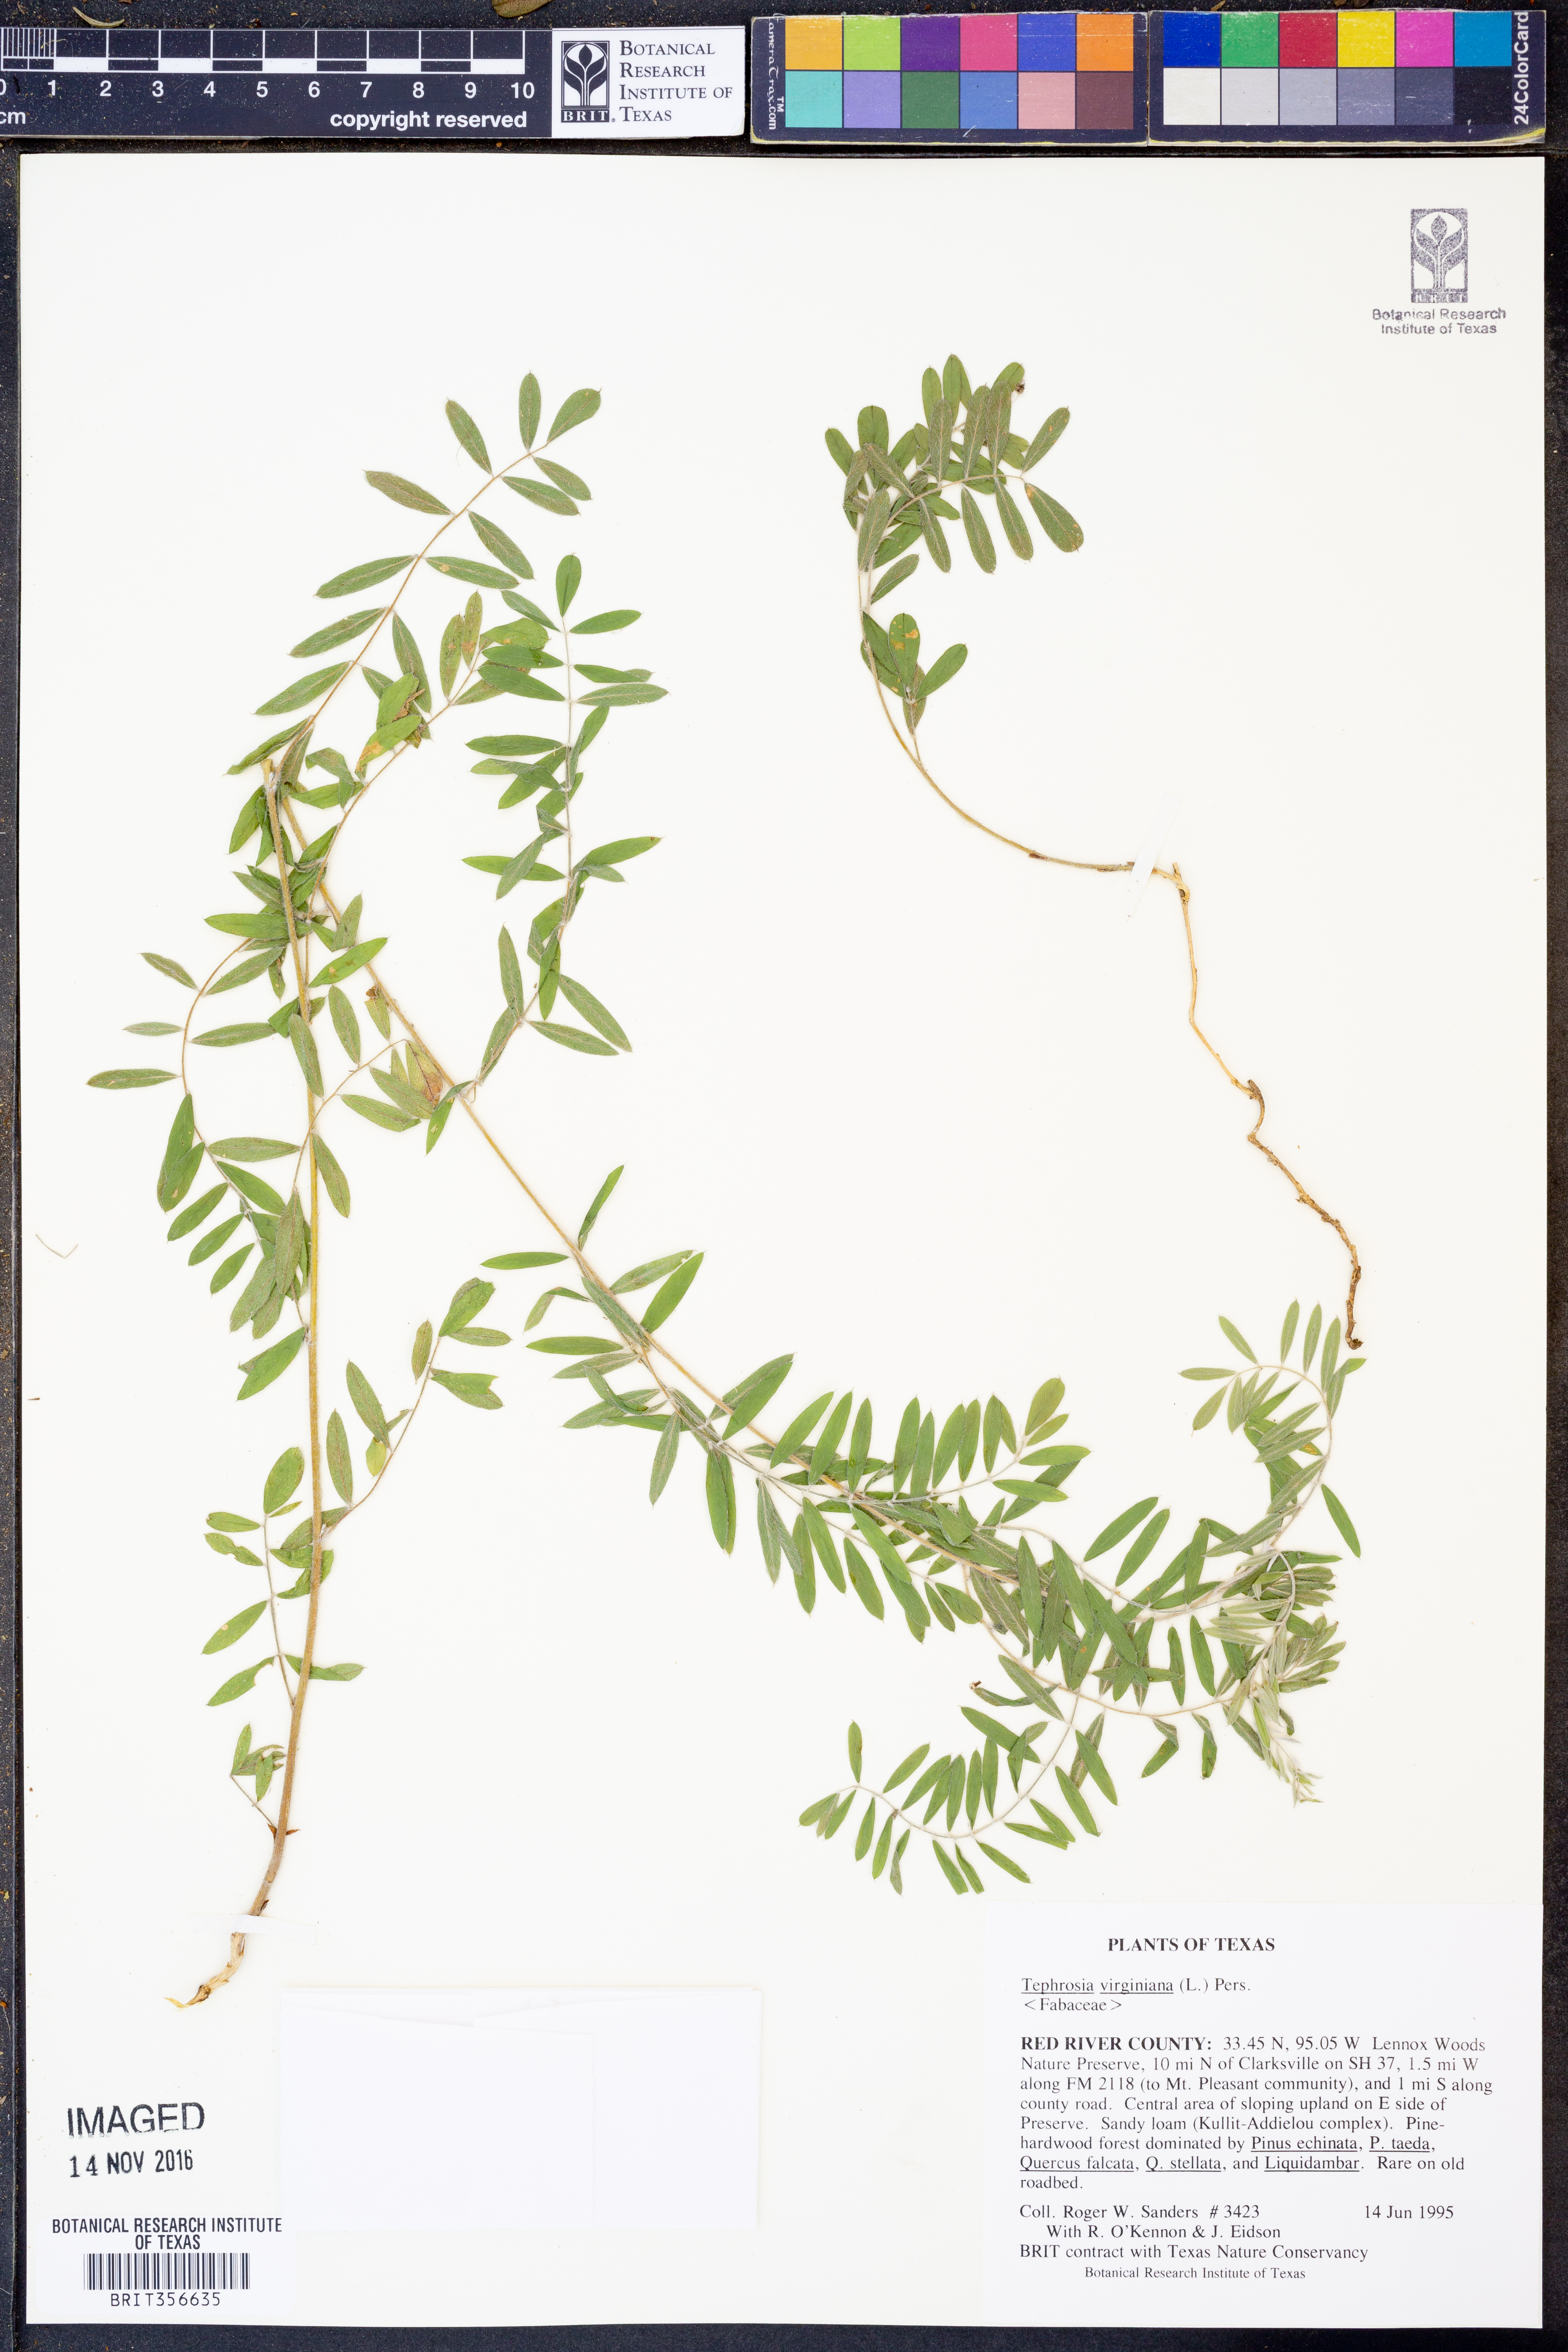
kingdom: Plantae
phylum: Tracheophyta
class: Magnoliopsida
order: Fabales
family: Fabaceae
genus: Tephrosia
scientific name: Tephrosia virginiana
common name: Rabbit-pea
